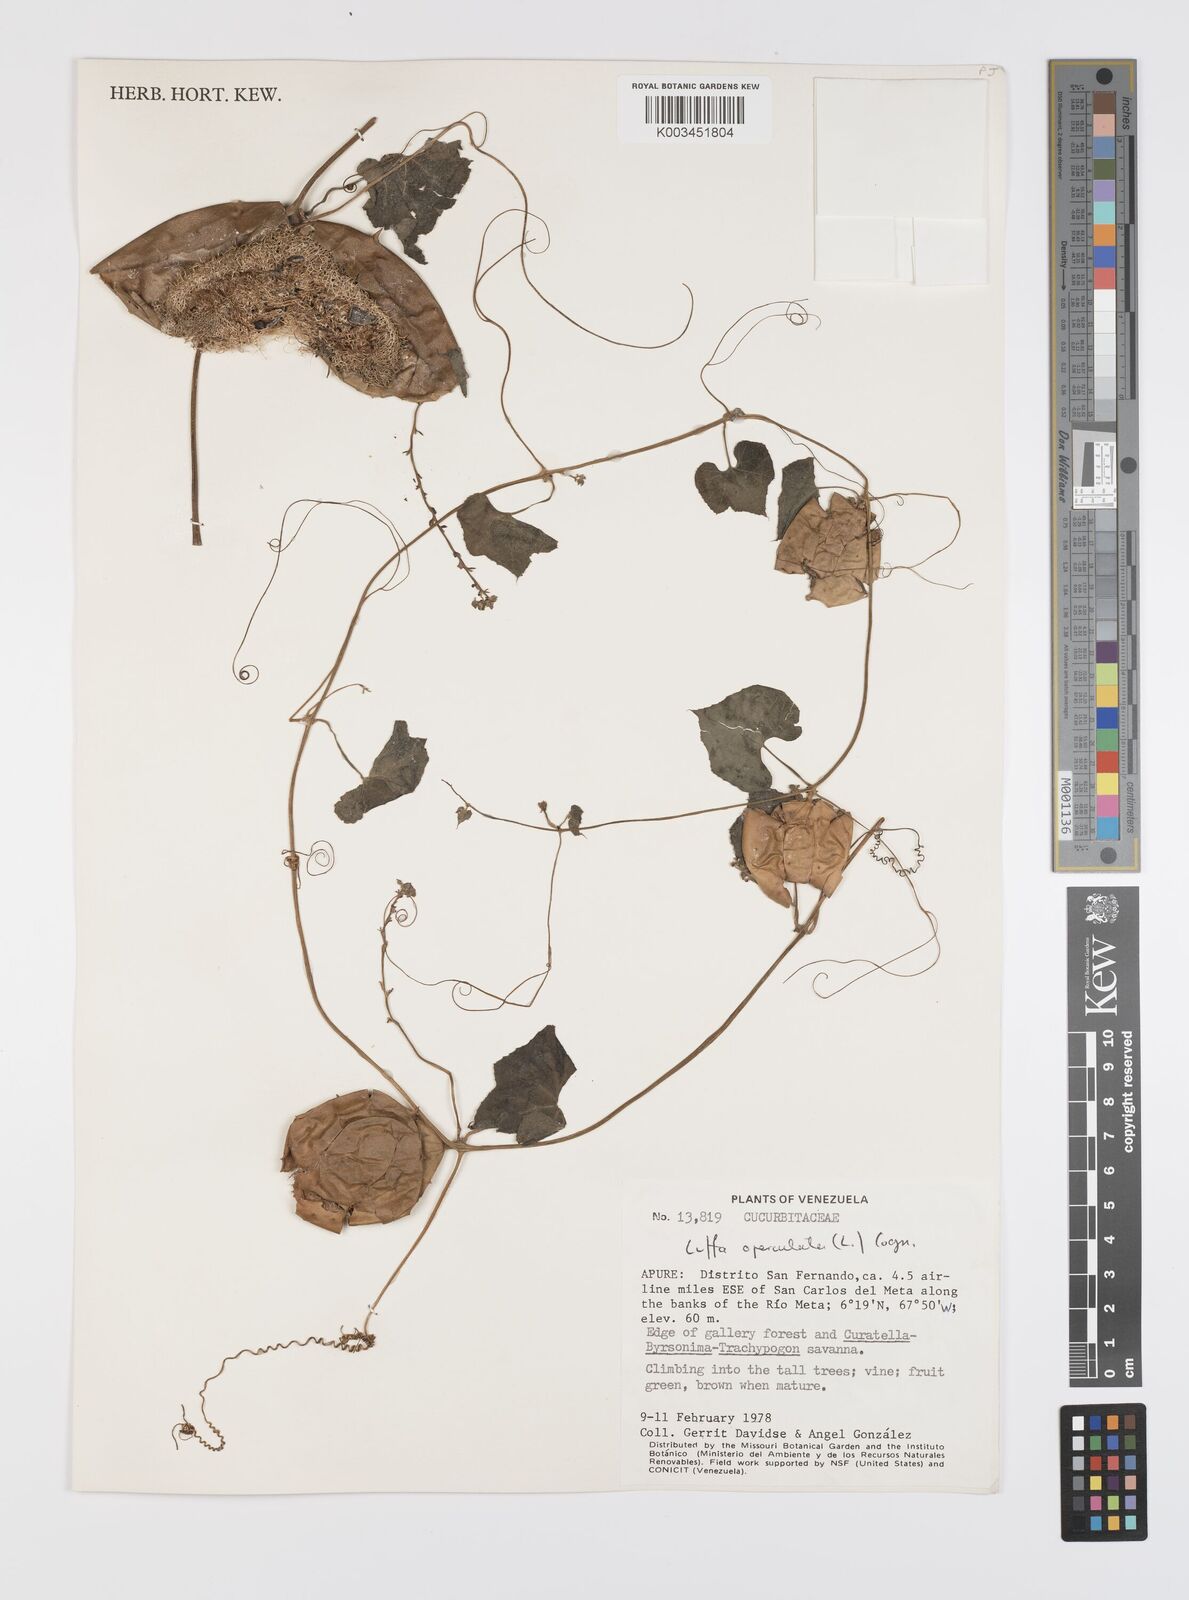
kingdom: Plantae
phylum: Tracheophyta
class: Magnoliopsida
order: Cucurbitales
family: Cucurbitaceae
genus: Luffa
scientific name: Luffa operculata
